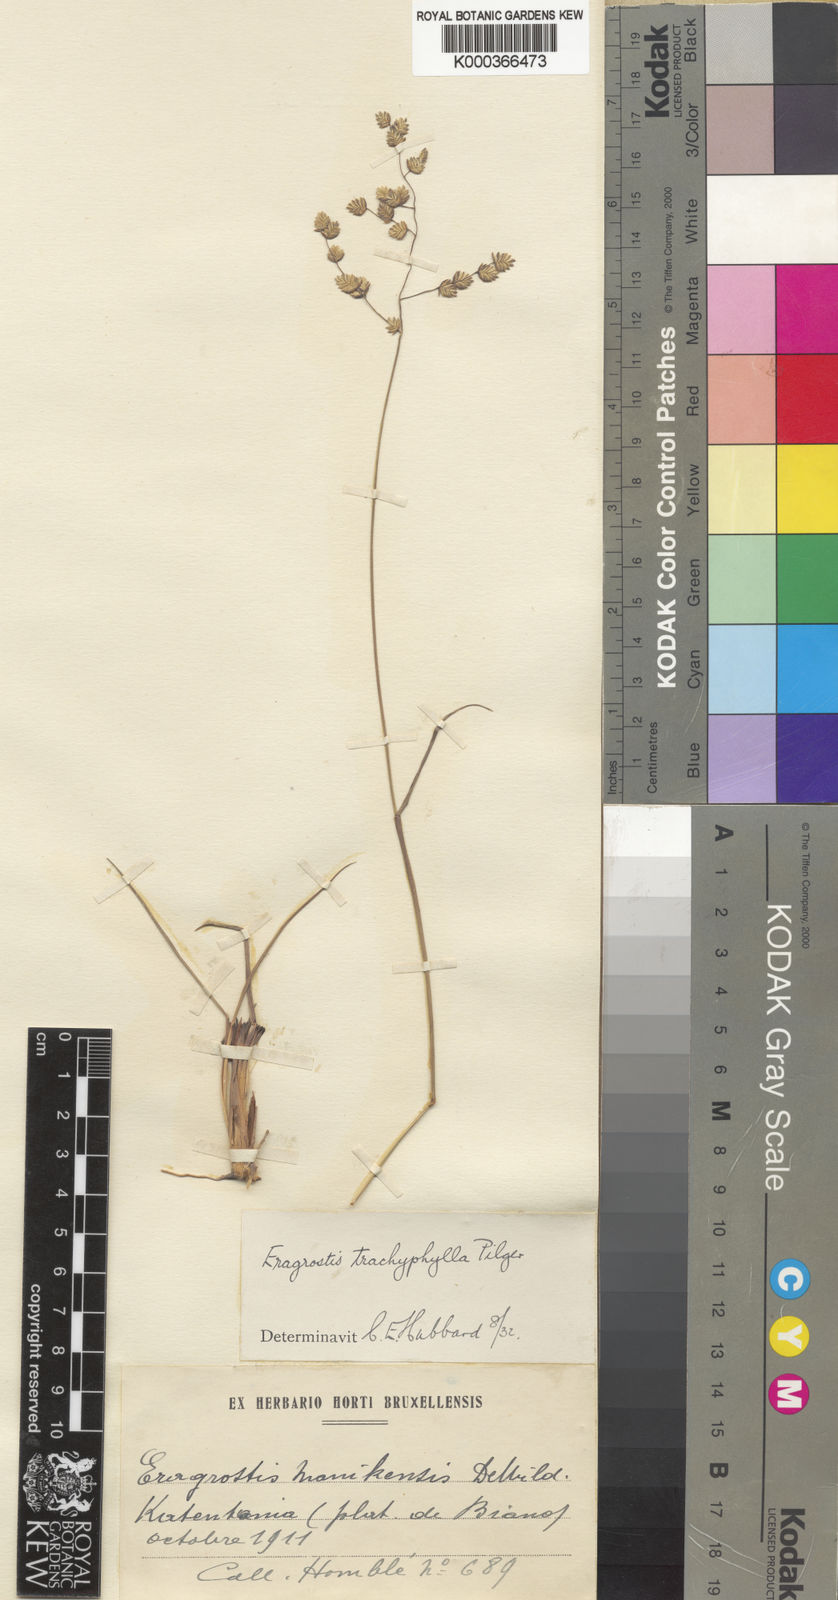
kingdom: Plantae
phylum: Tracheophyta
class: Liliopsida
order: Poales
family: Poaceae
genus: Eragrostis
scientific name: Eragrostis capensis
